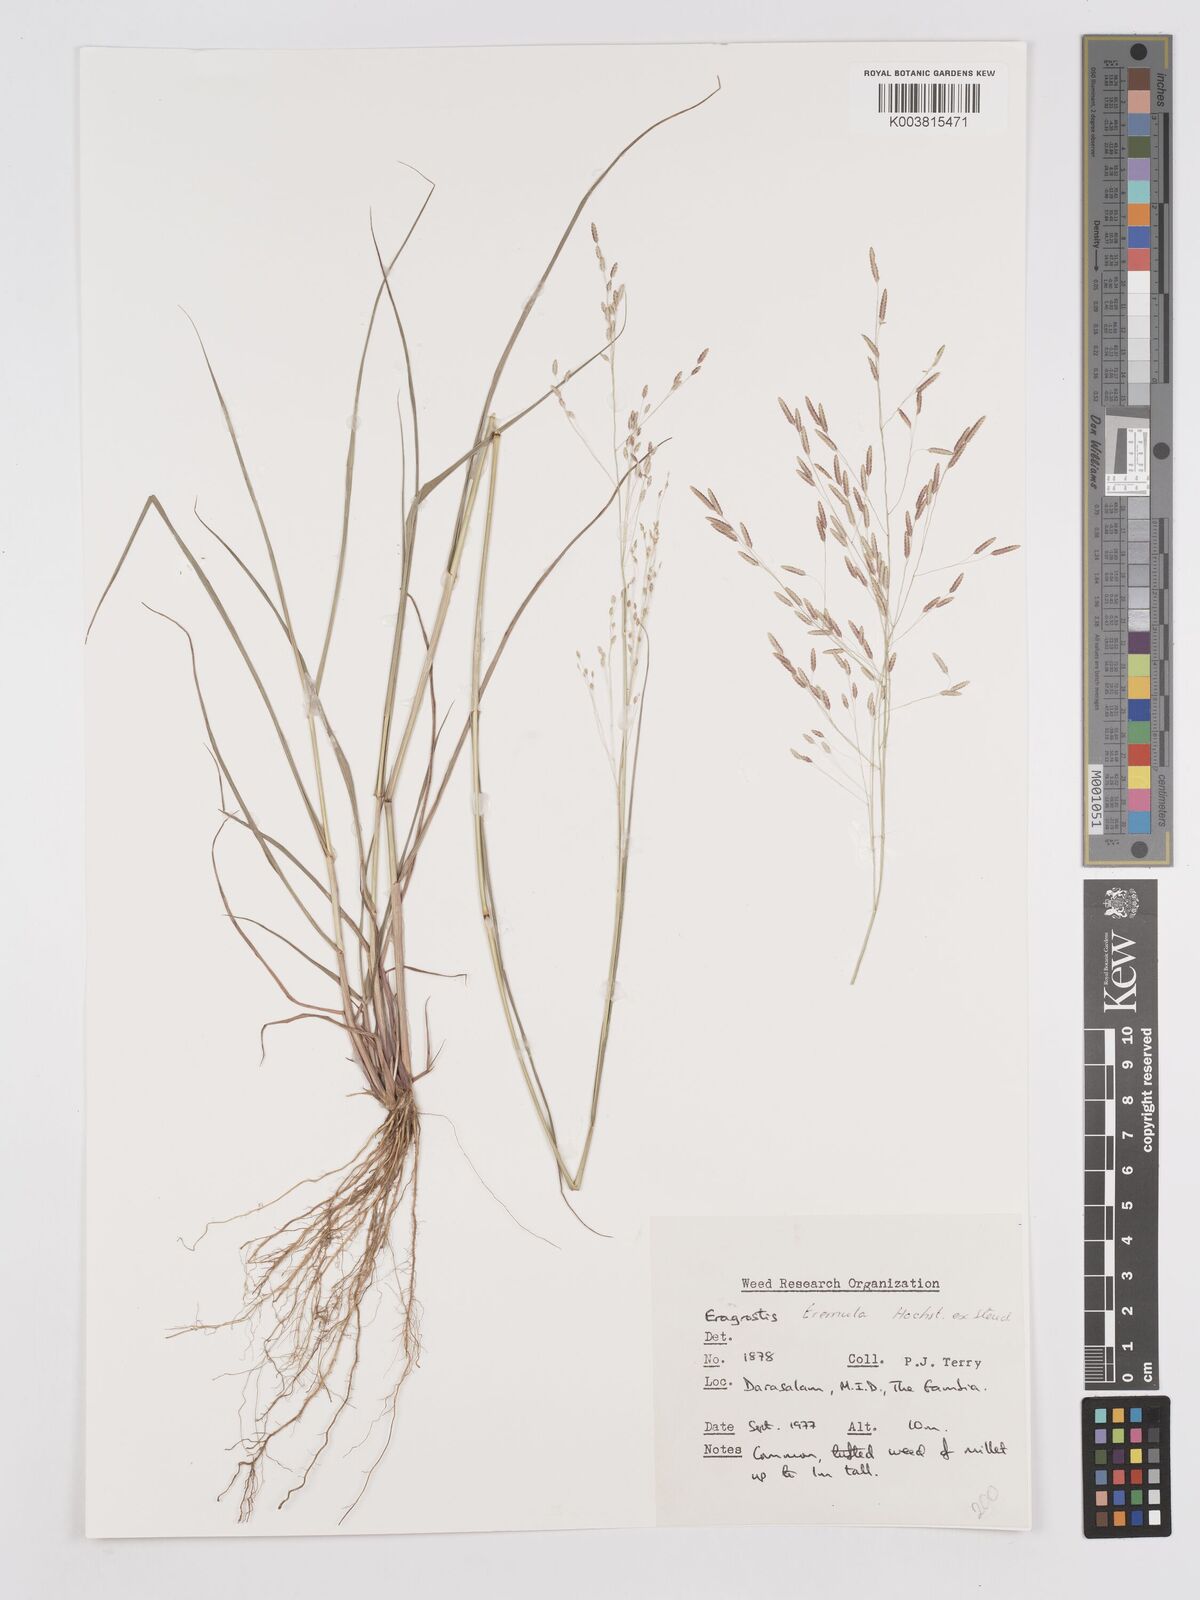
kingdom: Plantae
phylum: Tracheophyta
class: Liliopsida
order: Poales
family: Poaceae
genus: Eragrostis
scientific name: Eragrostis tremula
